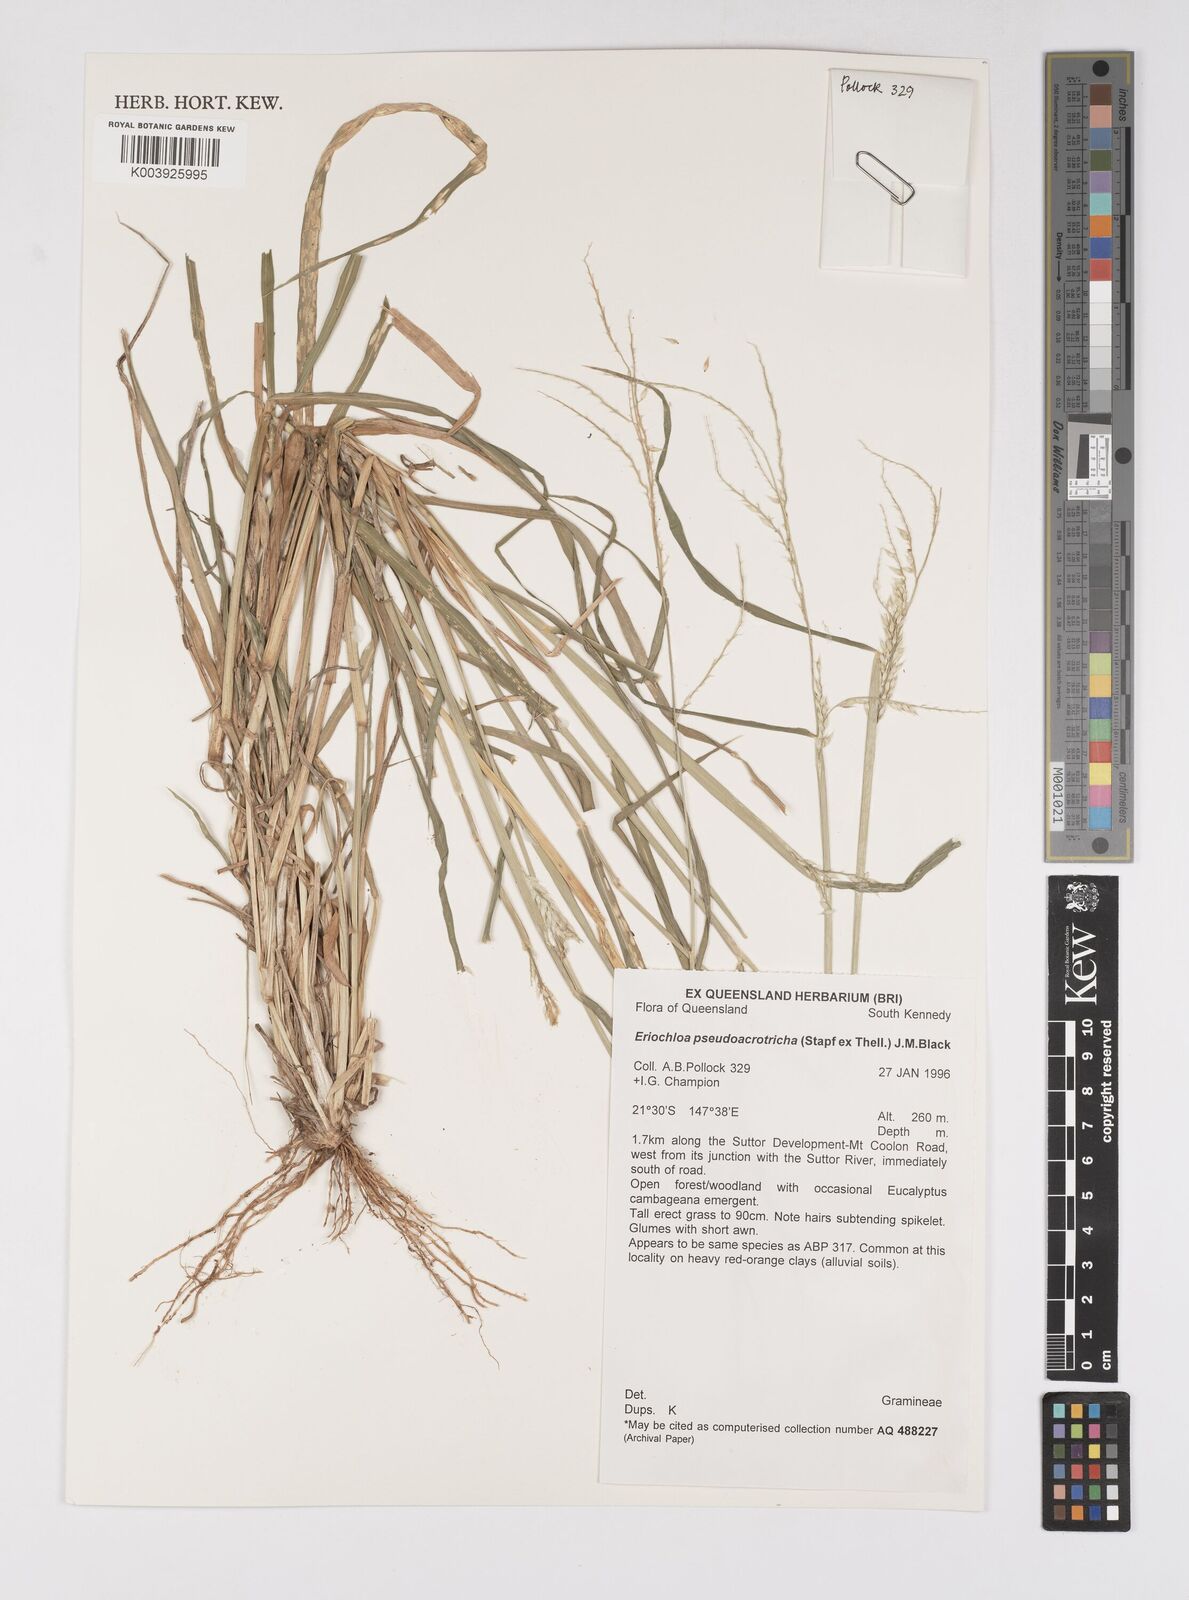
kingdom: Plantae
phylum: Tracheophyta
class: Liliopsida
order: Poales
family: Poaceae
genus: Eriochloa
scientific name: Eriochloa pseudoacrotricha
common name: Perennial cup-grass
